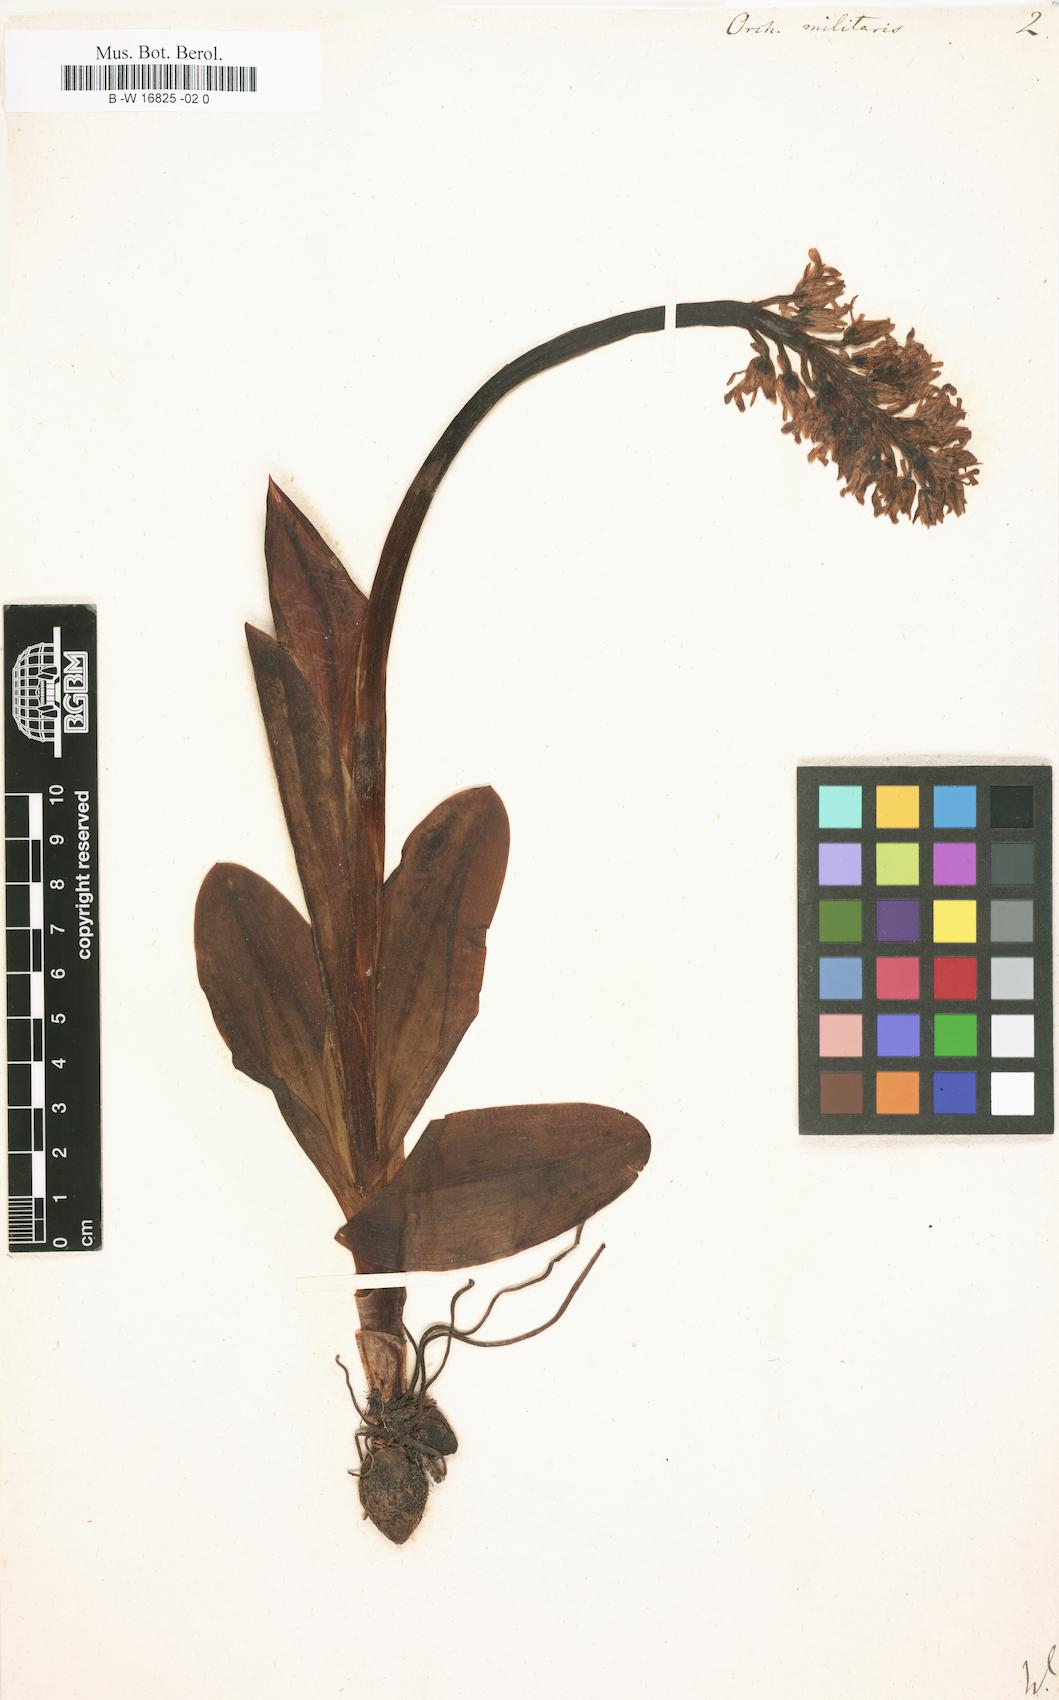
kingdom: Plantae
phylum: Tracheophyta
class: Liliopsida
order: Asparagales
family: Orchidaceae
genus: Orchis
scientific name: Orchis militaris
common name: Military orchid
